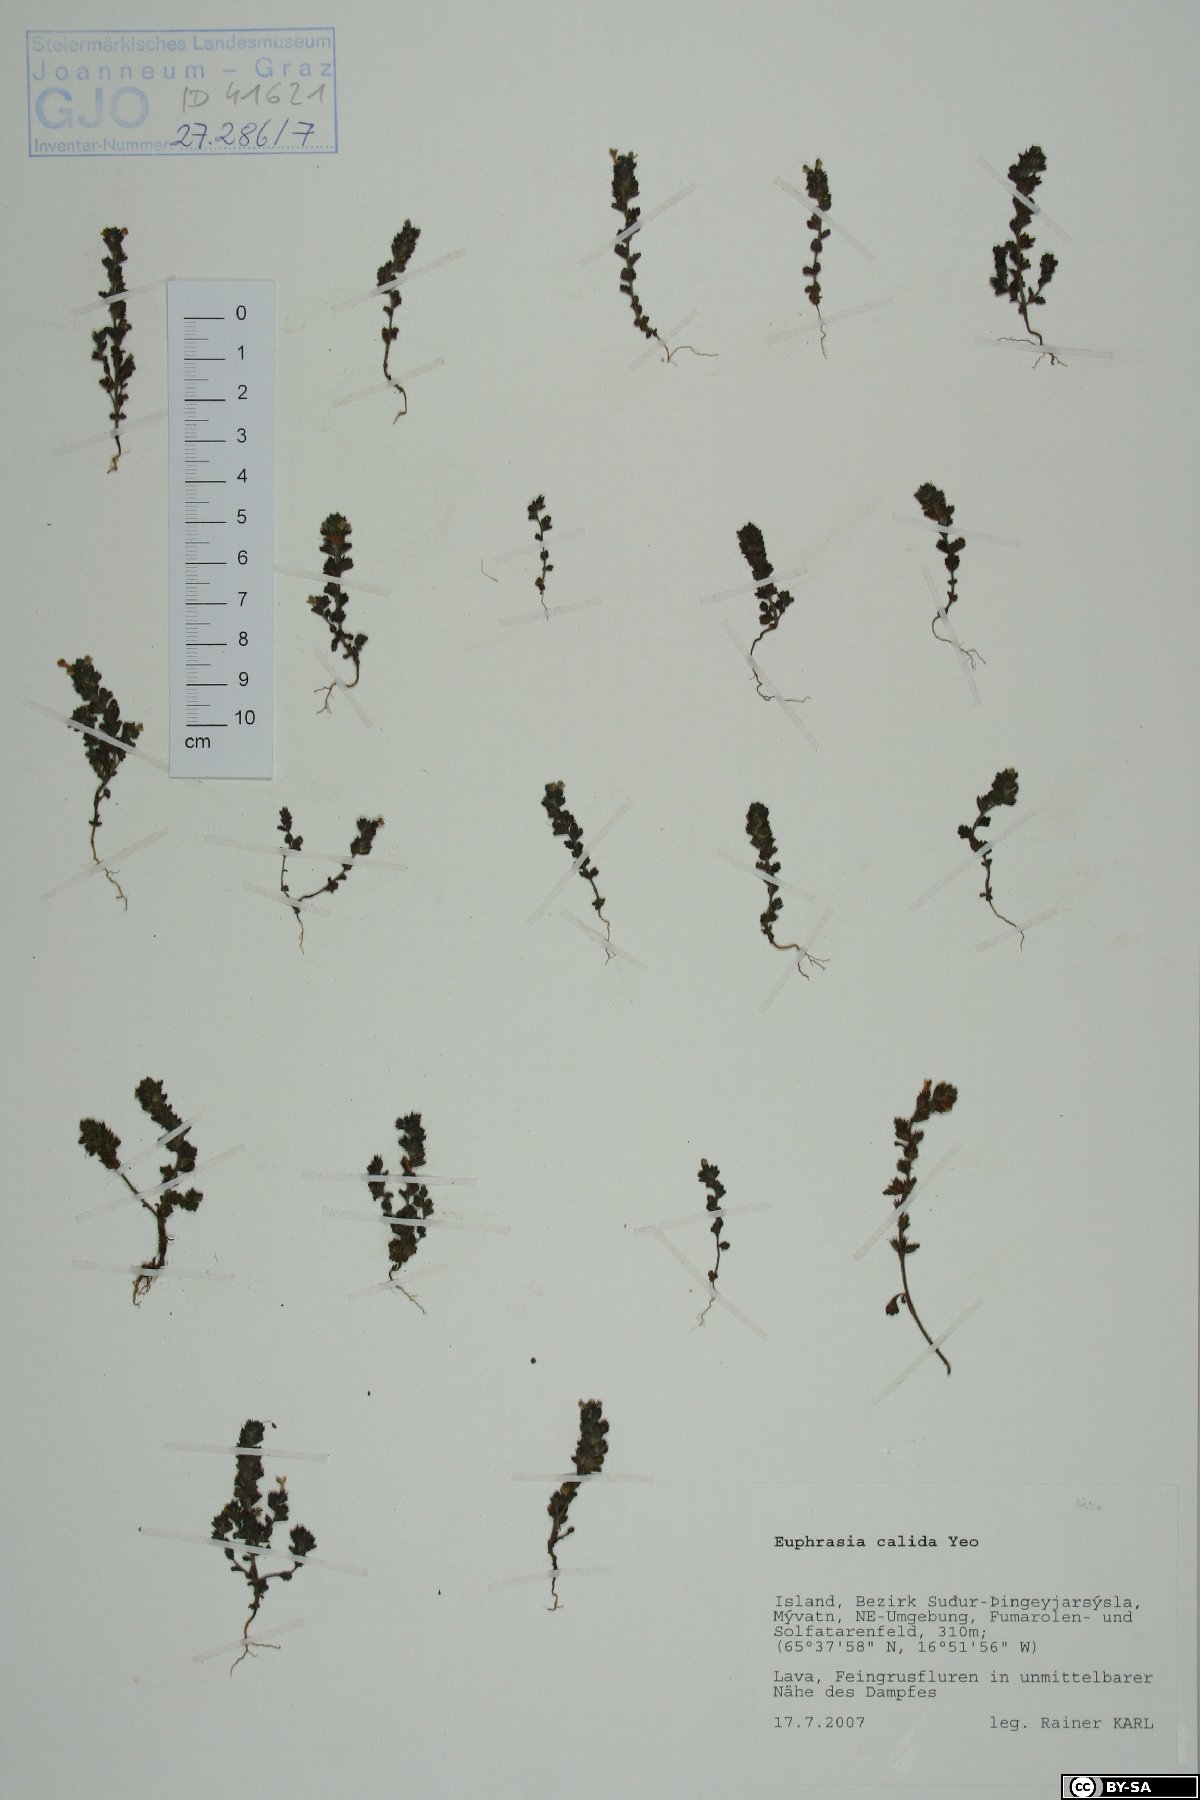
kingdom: Plantae
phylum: Tracheophyta
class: Magnoliopsida
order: Lamiales
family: Orobanchaceae
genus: Euphrasia
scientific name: Euphrasia calida
